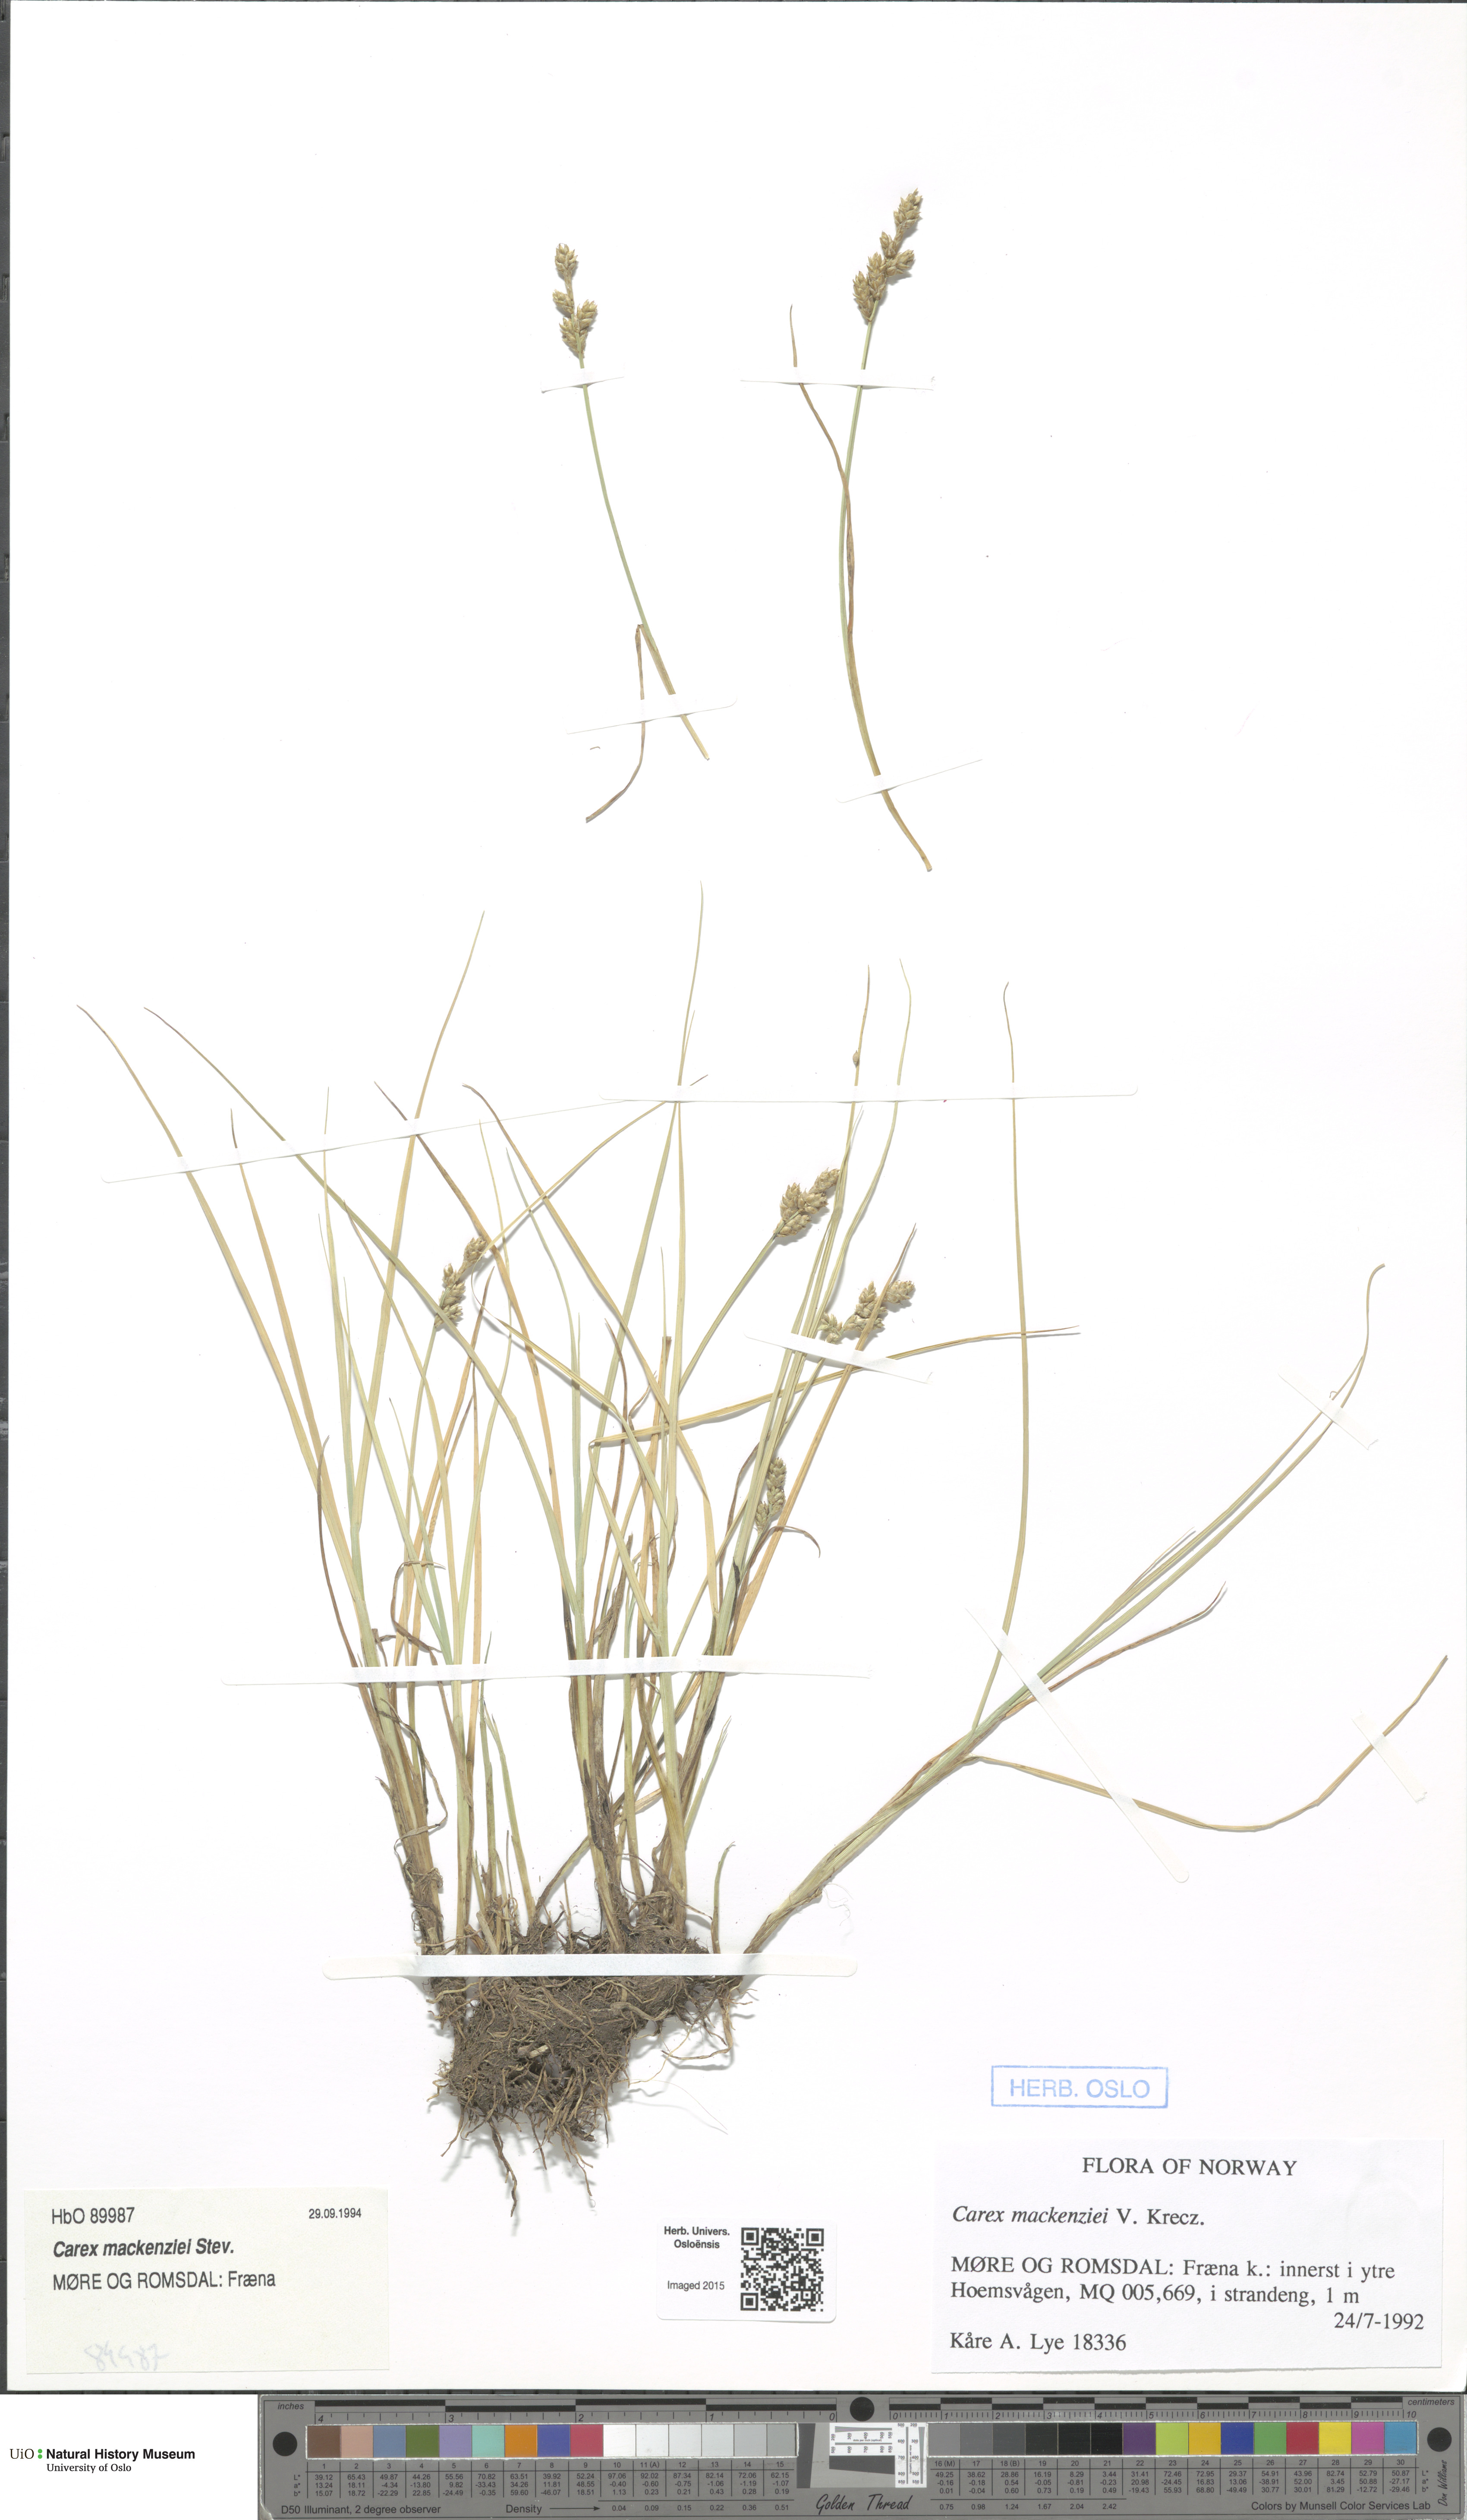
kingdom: Plantae
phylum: Tracheophyta
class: Liliopsida
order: Poales
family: Cyperaceae
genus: Carex
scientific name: Carex mackenziei
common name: Mackenzie's sedge
